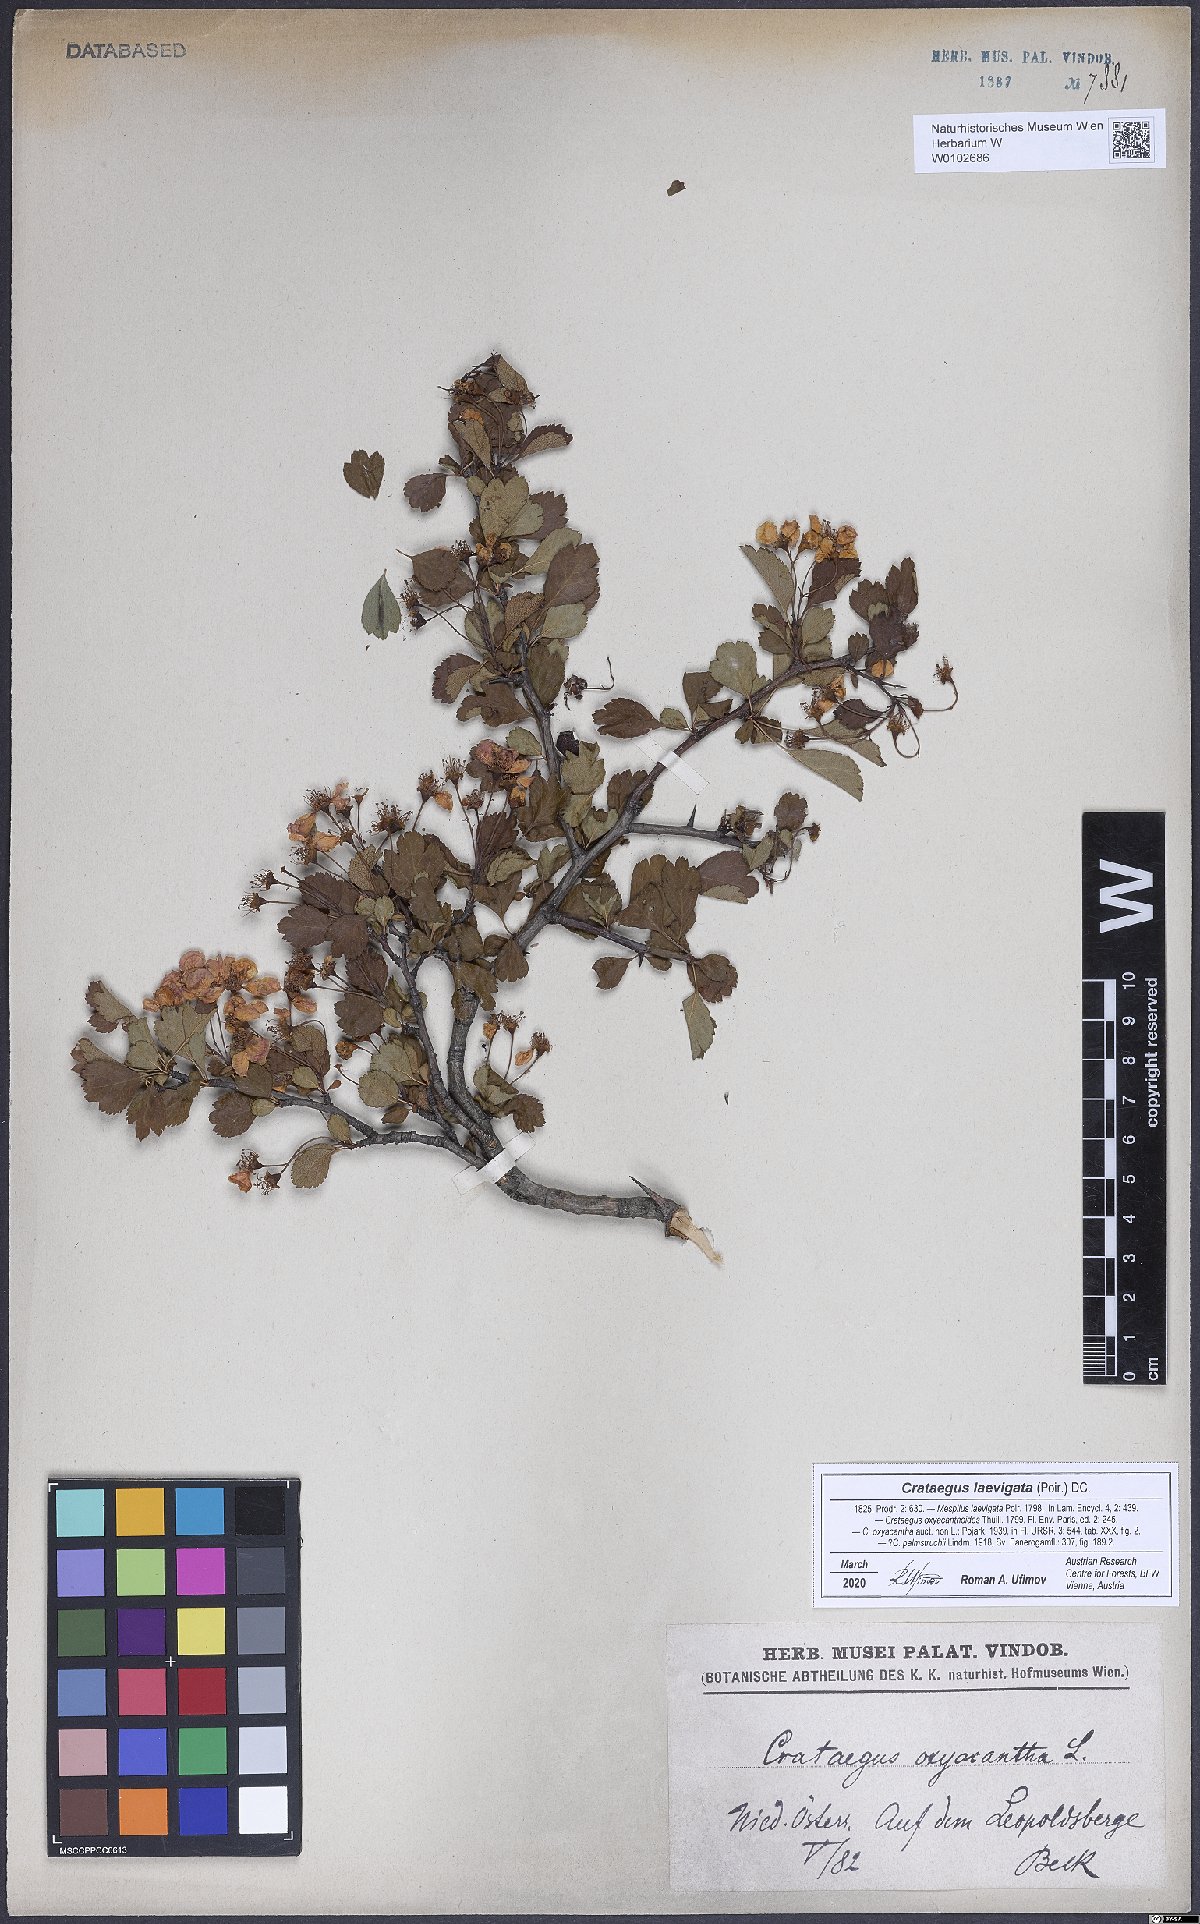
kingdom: Plantae
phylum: Tracheophyta
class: Magnoliopsida
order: Rosales
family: Rosaceae
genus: Crataegus
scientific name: Crataegus laevigata
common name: Midland hawthorn
